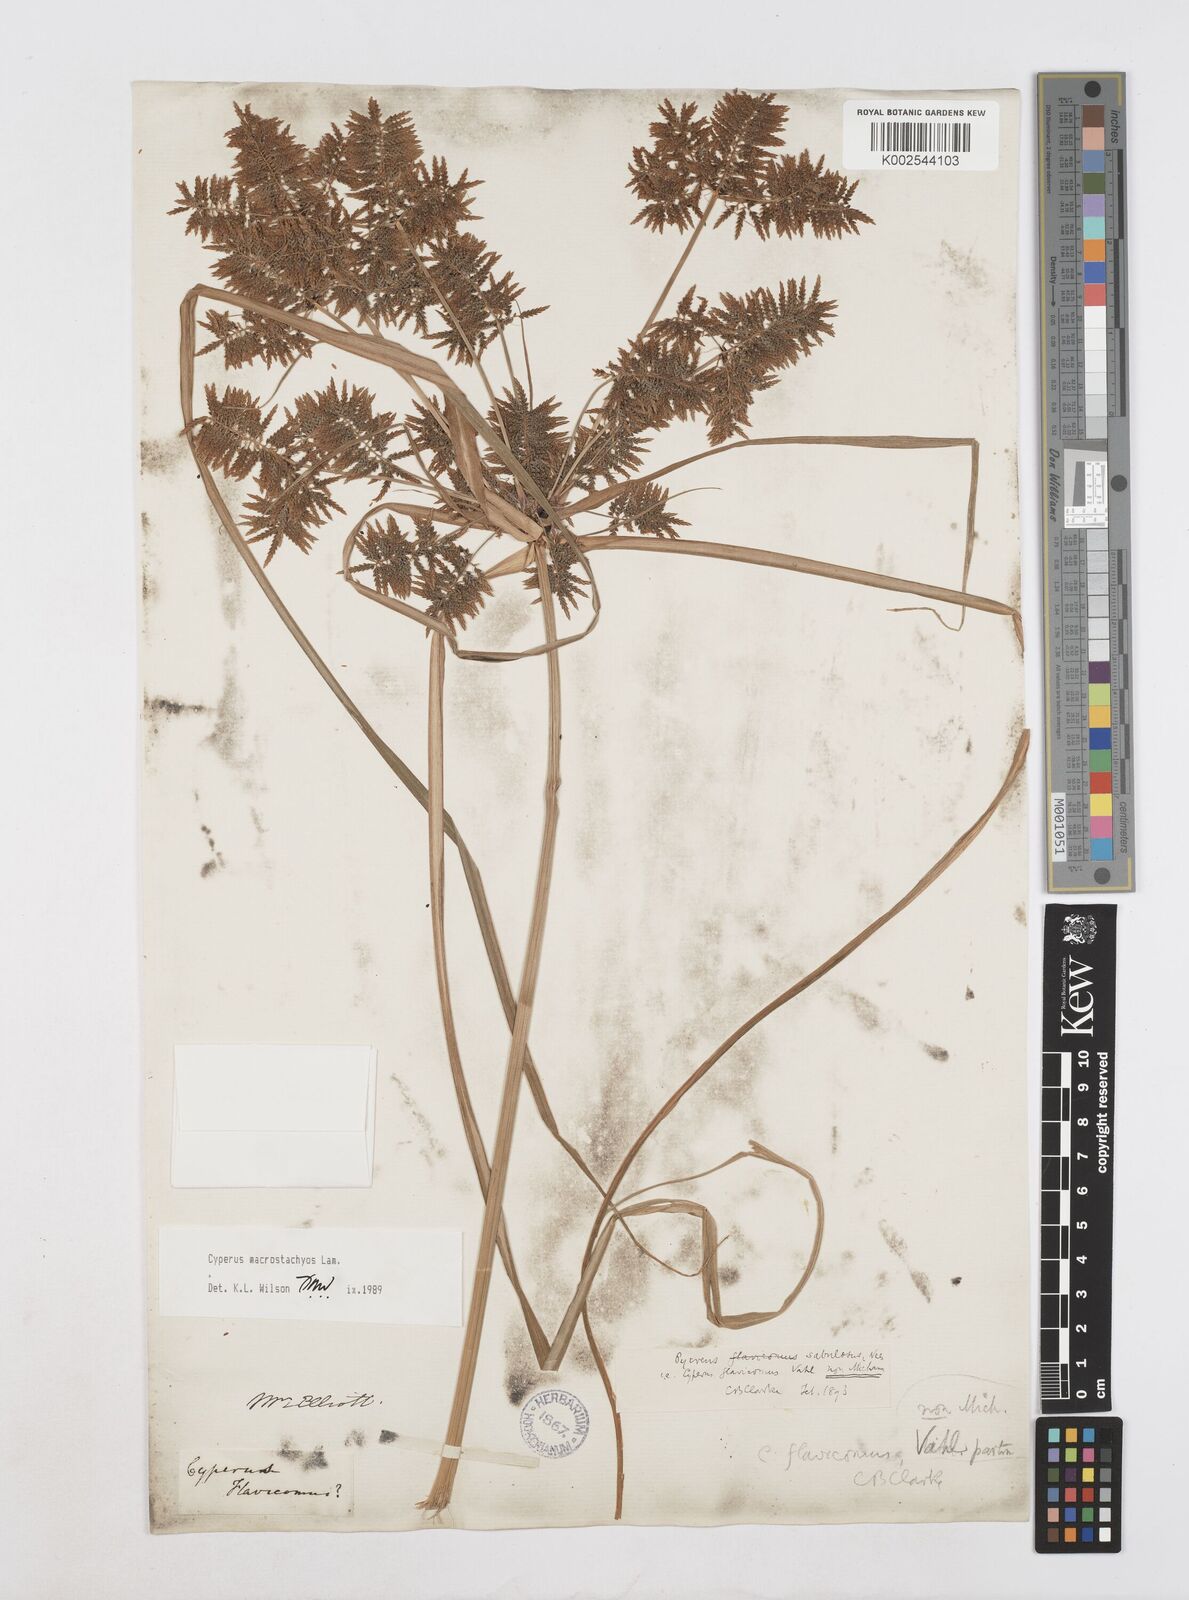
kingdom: Plantae
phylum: Tracheophyta
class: Liliopsida
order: Poales
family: Cyperaceae
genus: Cyperus
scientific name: Cyperus macrostachyos
